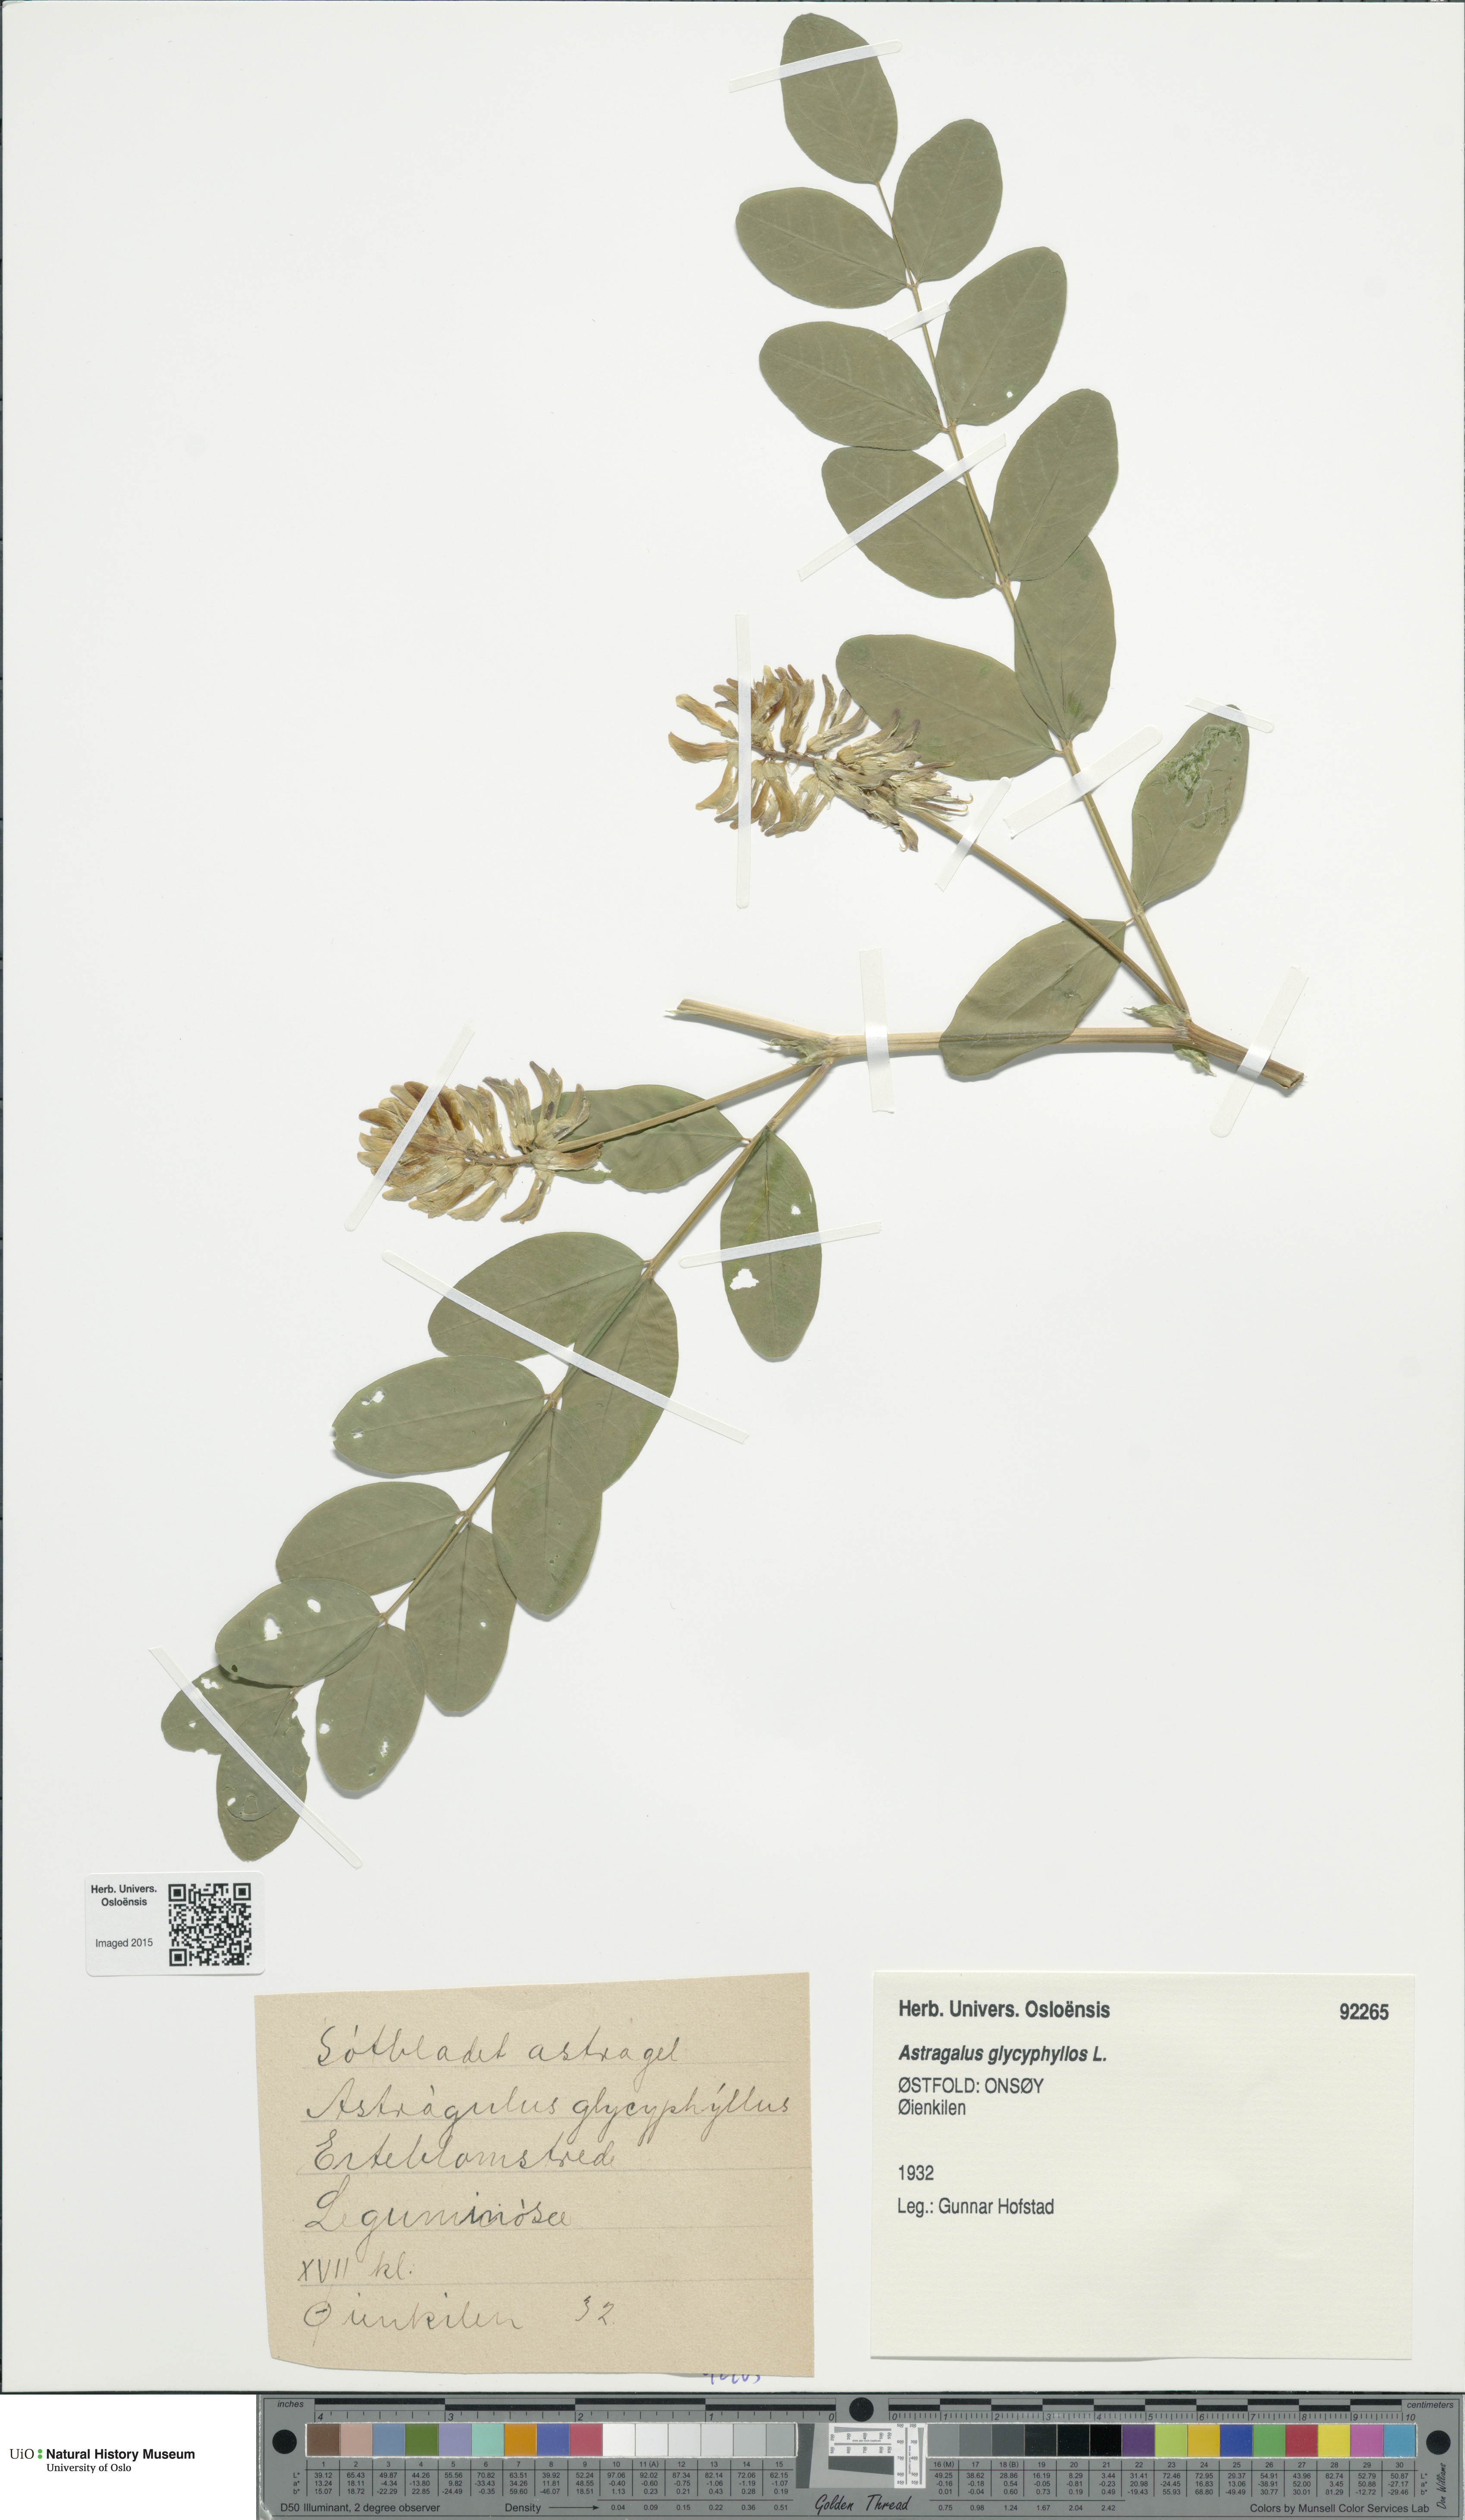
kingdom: Plantae
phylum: Tracheophyta
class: Magnoliopsida
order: Fabales
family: Fabaceae
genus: Astragalus
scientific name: Astragalus glycyphyllos
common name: Wild liquorice
